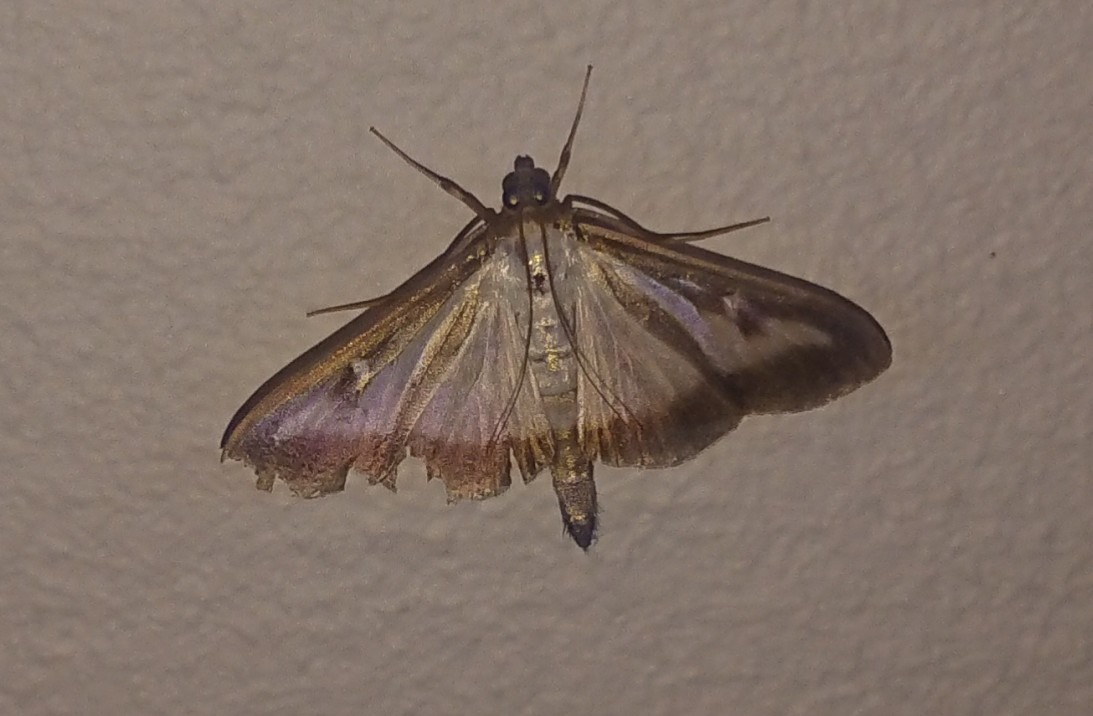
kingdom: Animalia
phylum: Arthropoda
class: Insecta
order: Lepidoptera
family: Crambidae
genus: Cydalima
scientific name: Cydalima perspectalis
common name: Buksbomhalvmøl
